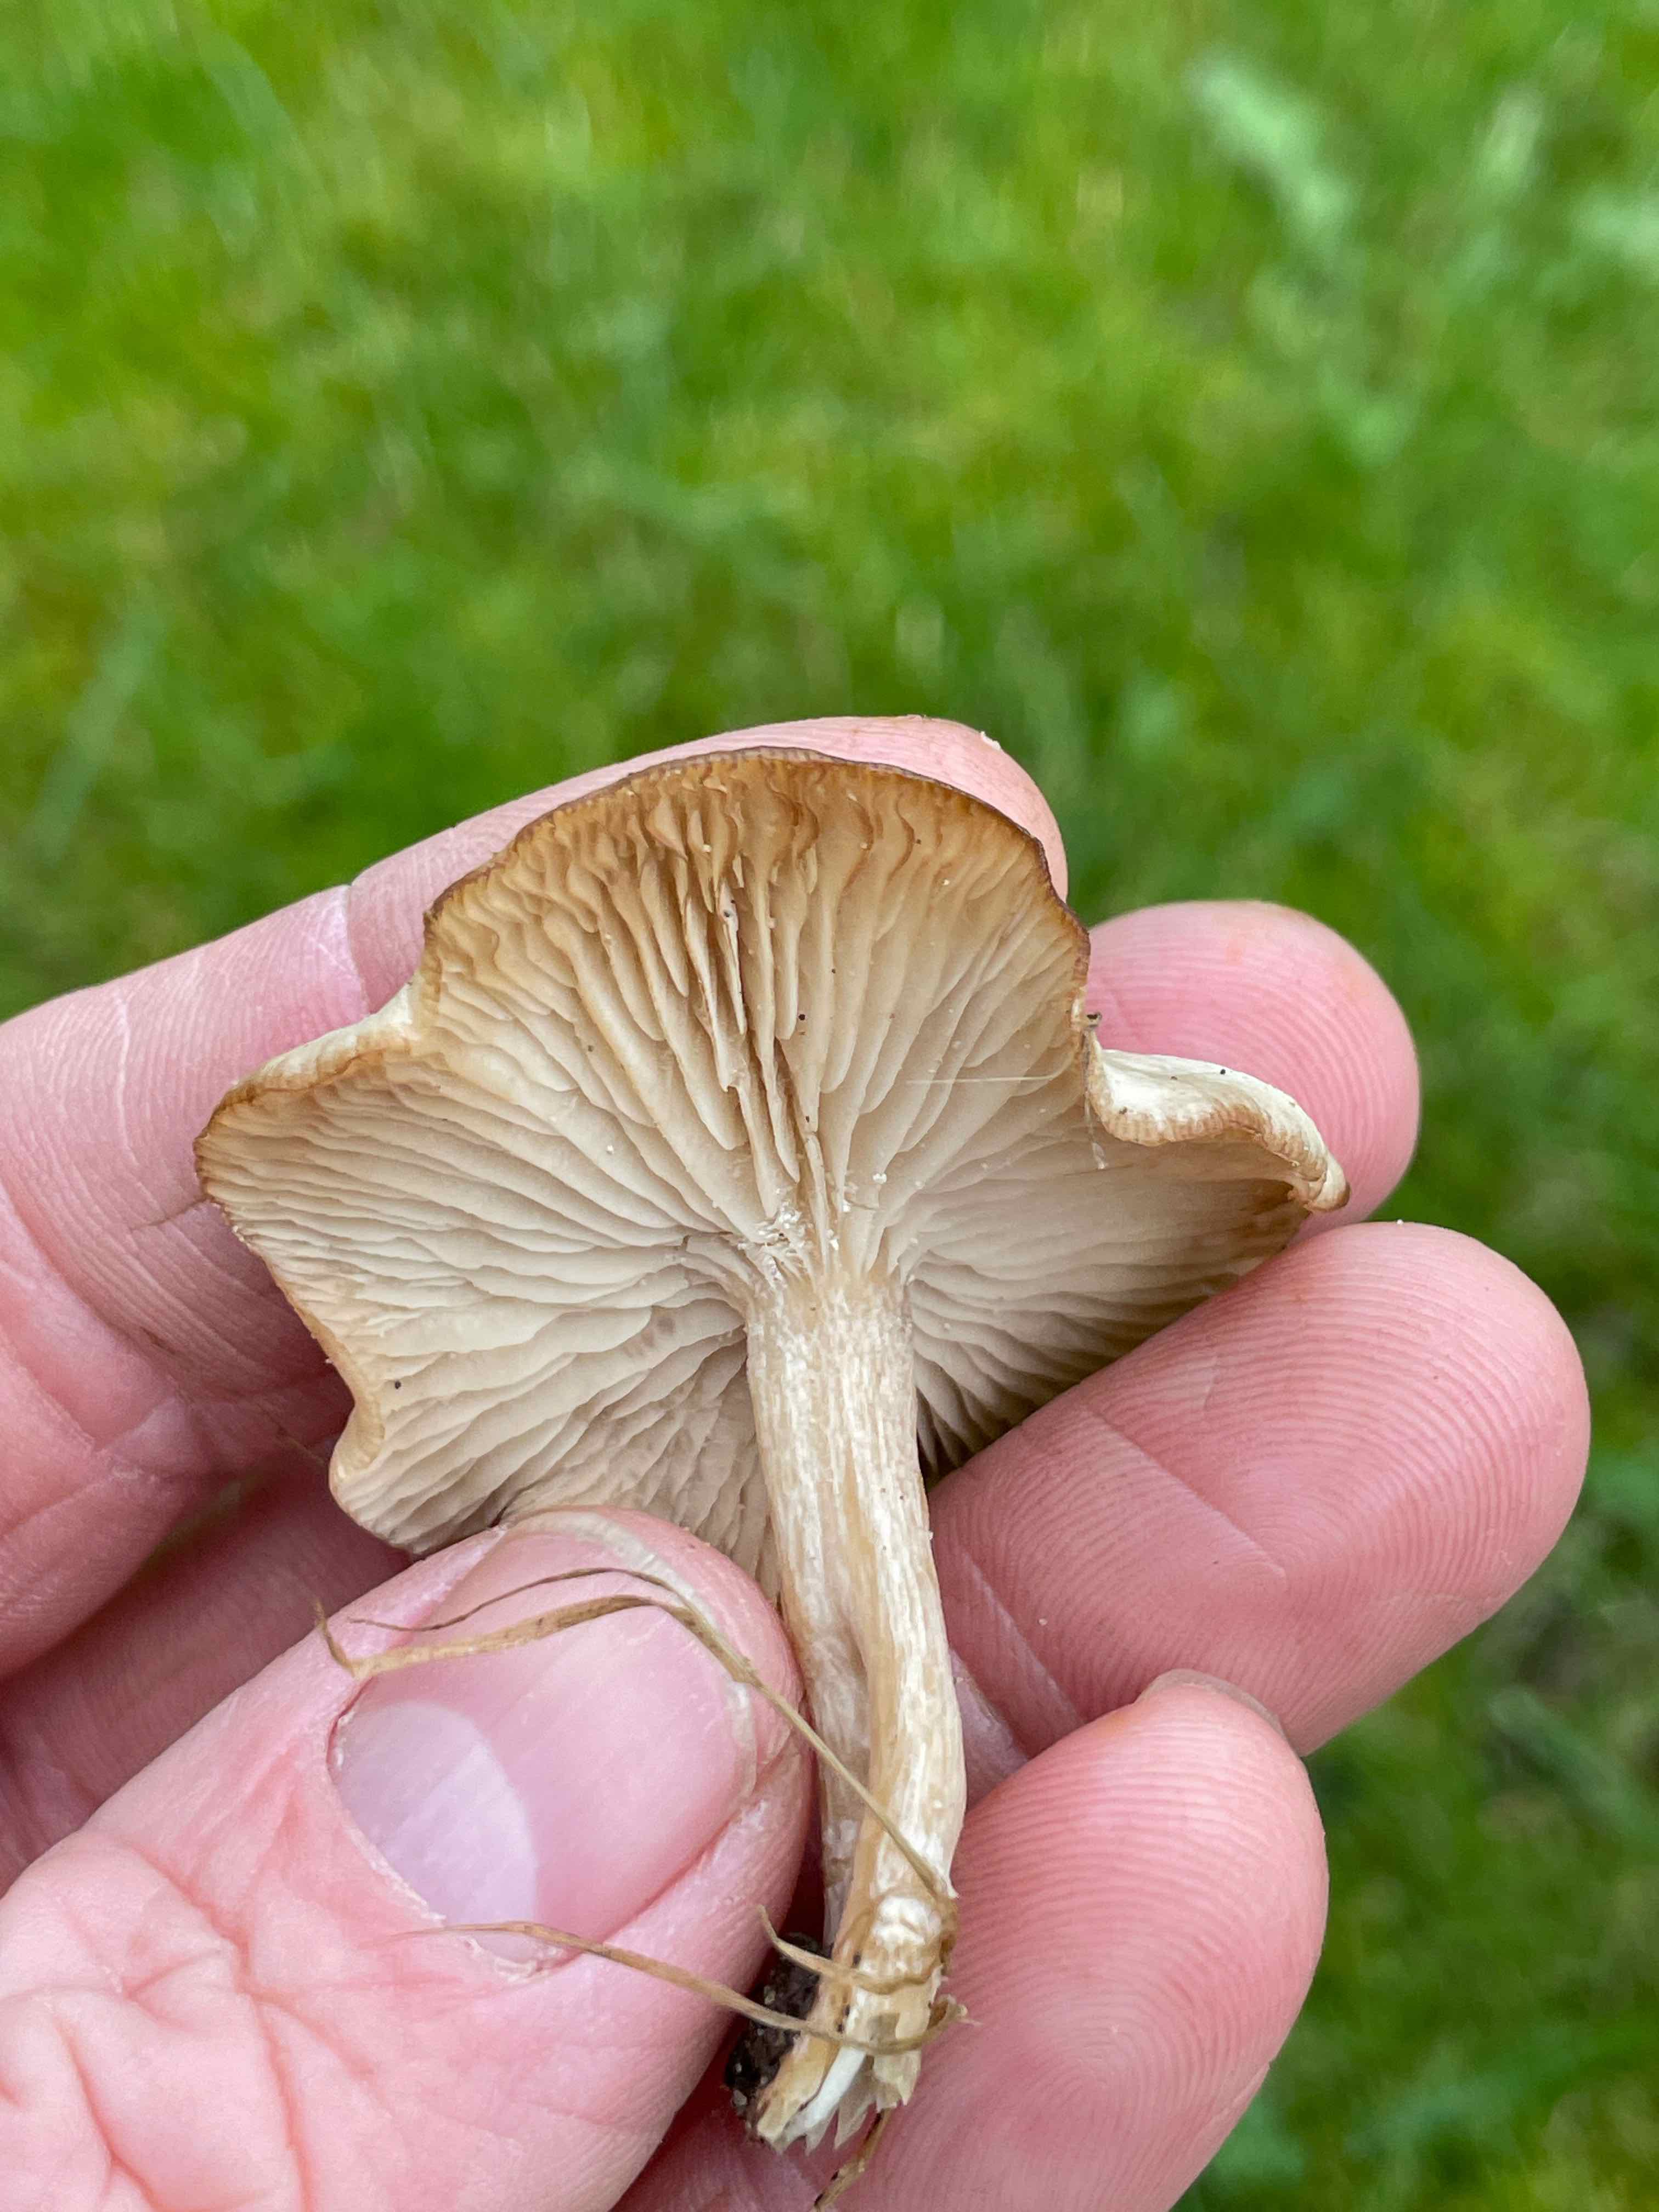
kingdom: Fungi
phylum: Basidiomycota
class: Agaricomycetes
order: Agaricales
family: Tricholomataceae
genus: Clitocybe
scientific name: Clitocybe fragrans
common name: vellugtende tragthat
